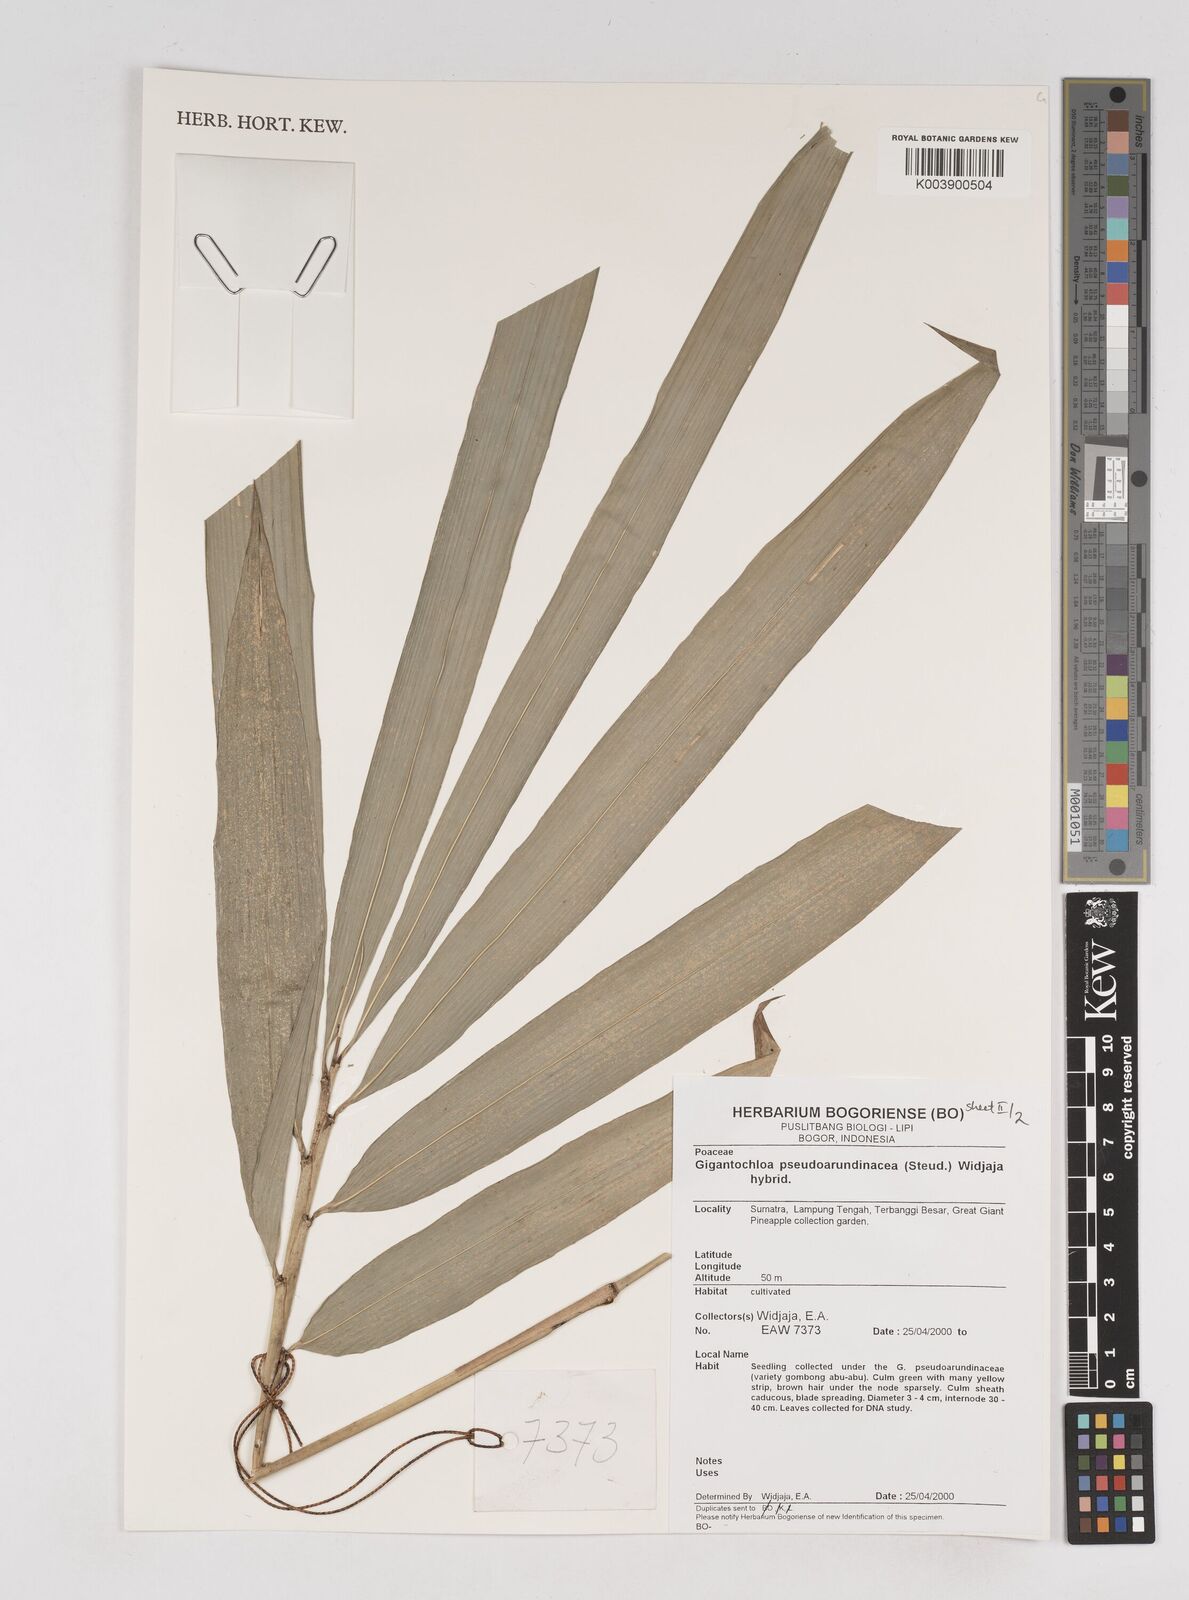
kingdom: Plantae
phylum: Tracheophyta
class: Liliopsida
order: Poales
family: Poaceae
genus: Gigantochloa
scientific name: Gigantochloa verticillata
